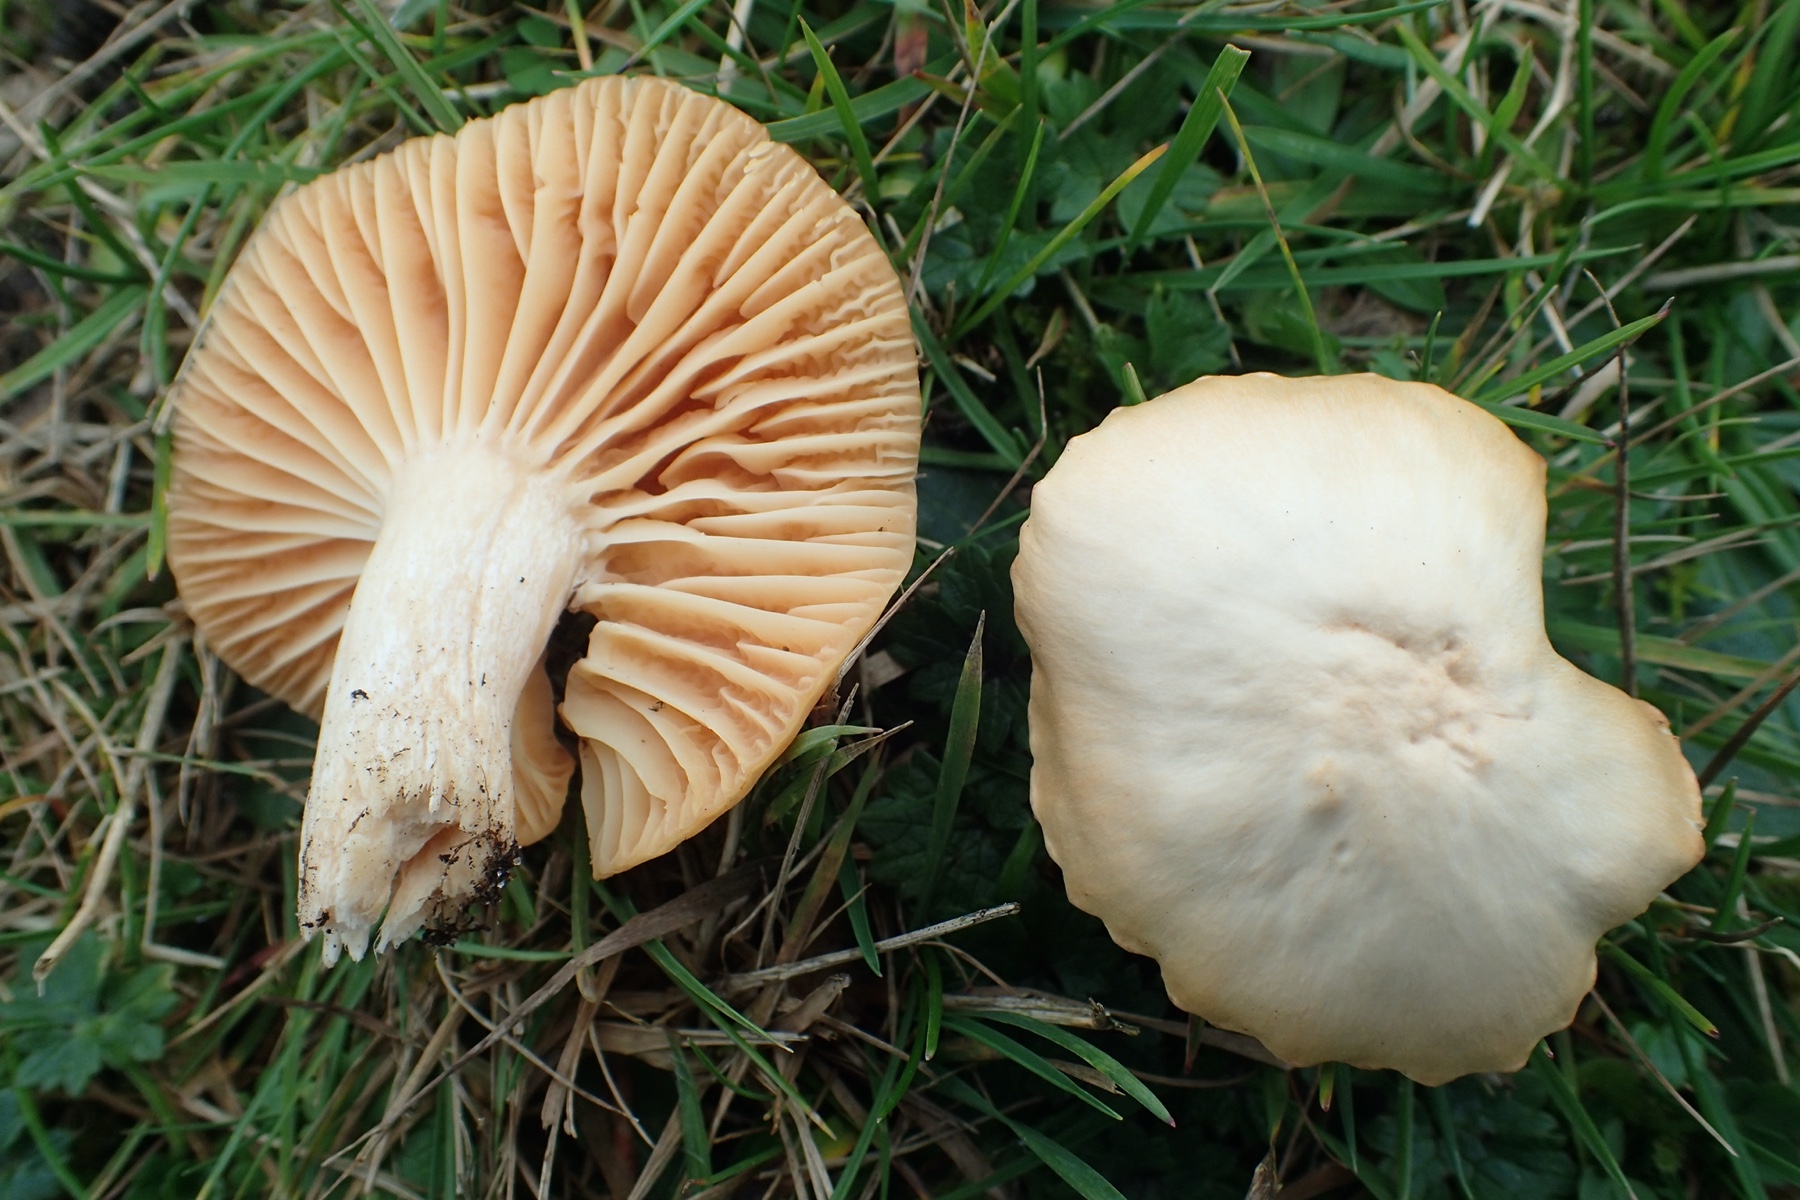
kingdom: Fungi
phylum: Basidiomycota
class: Agaricomycetes
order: Agaricales
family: Hygrophoraceae
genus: Cuphophyllus
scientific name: Cuphophyllus pratensis
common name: eng-vokshat
